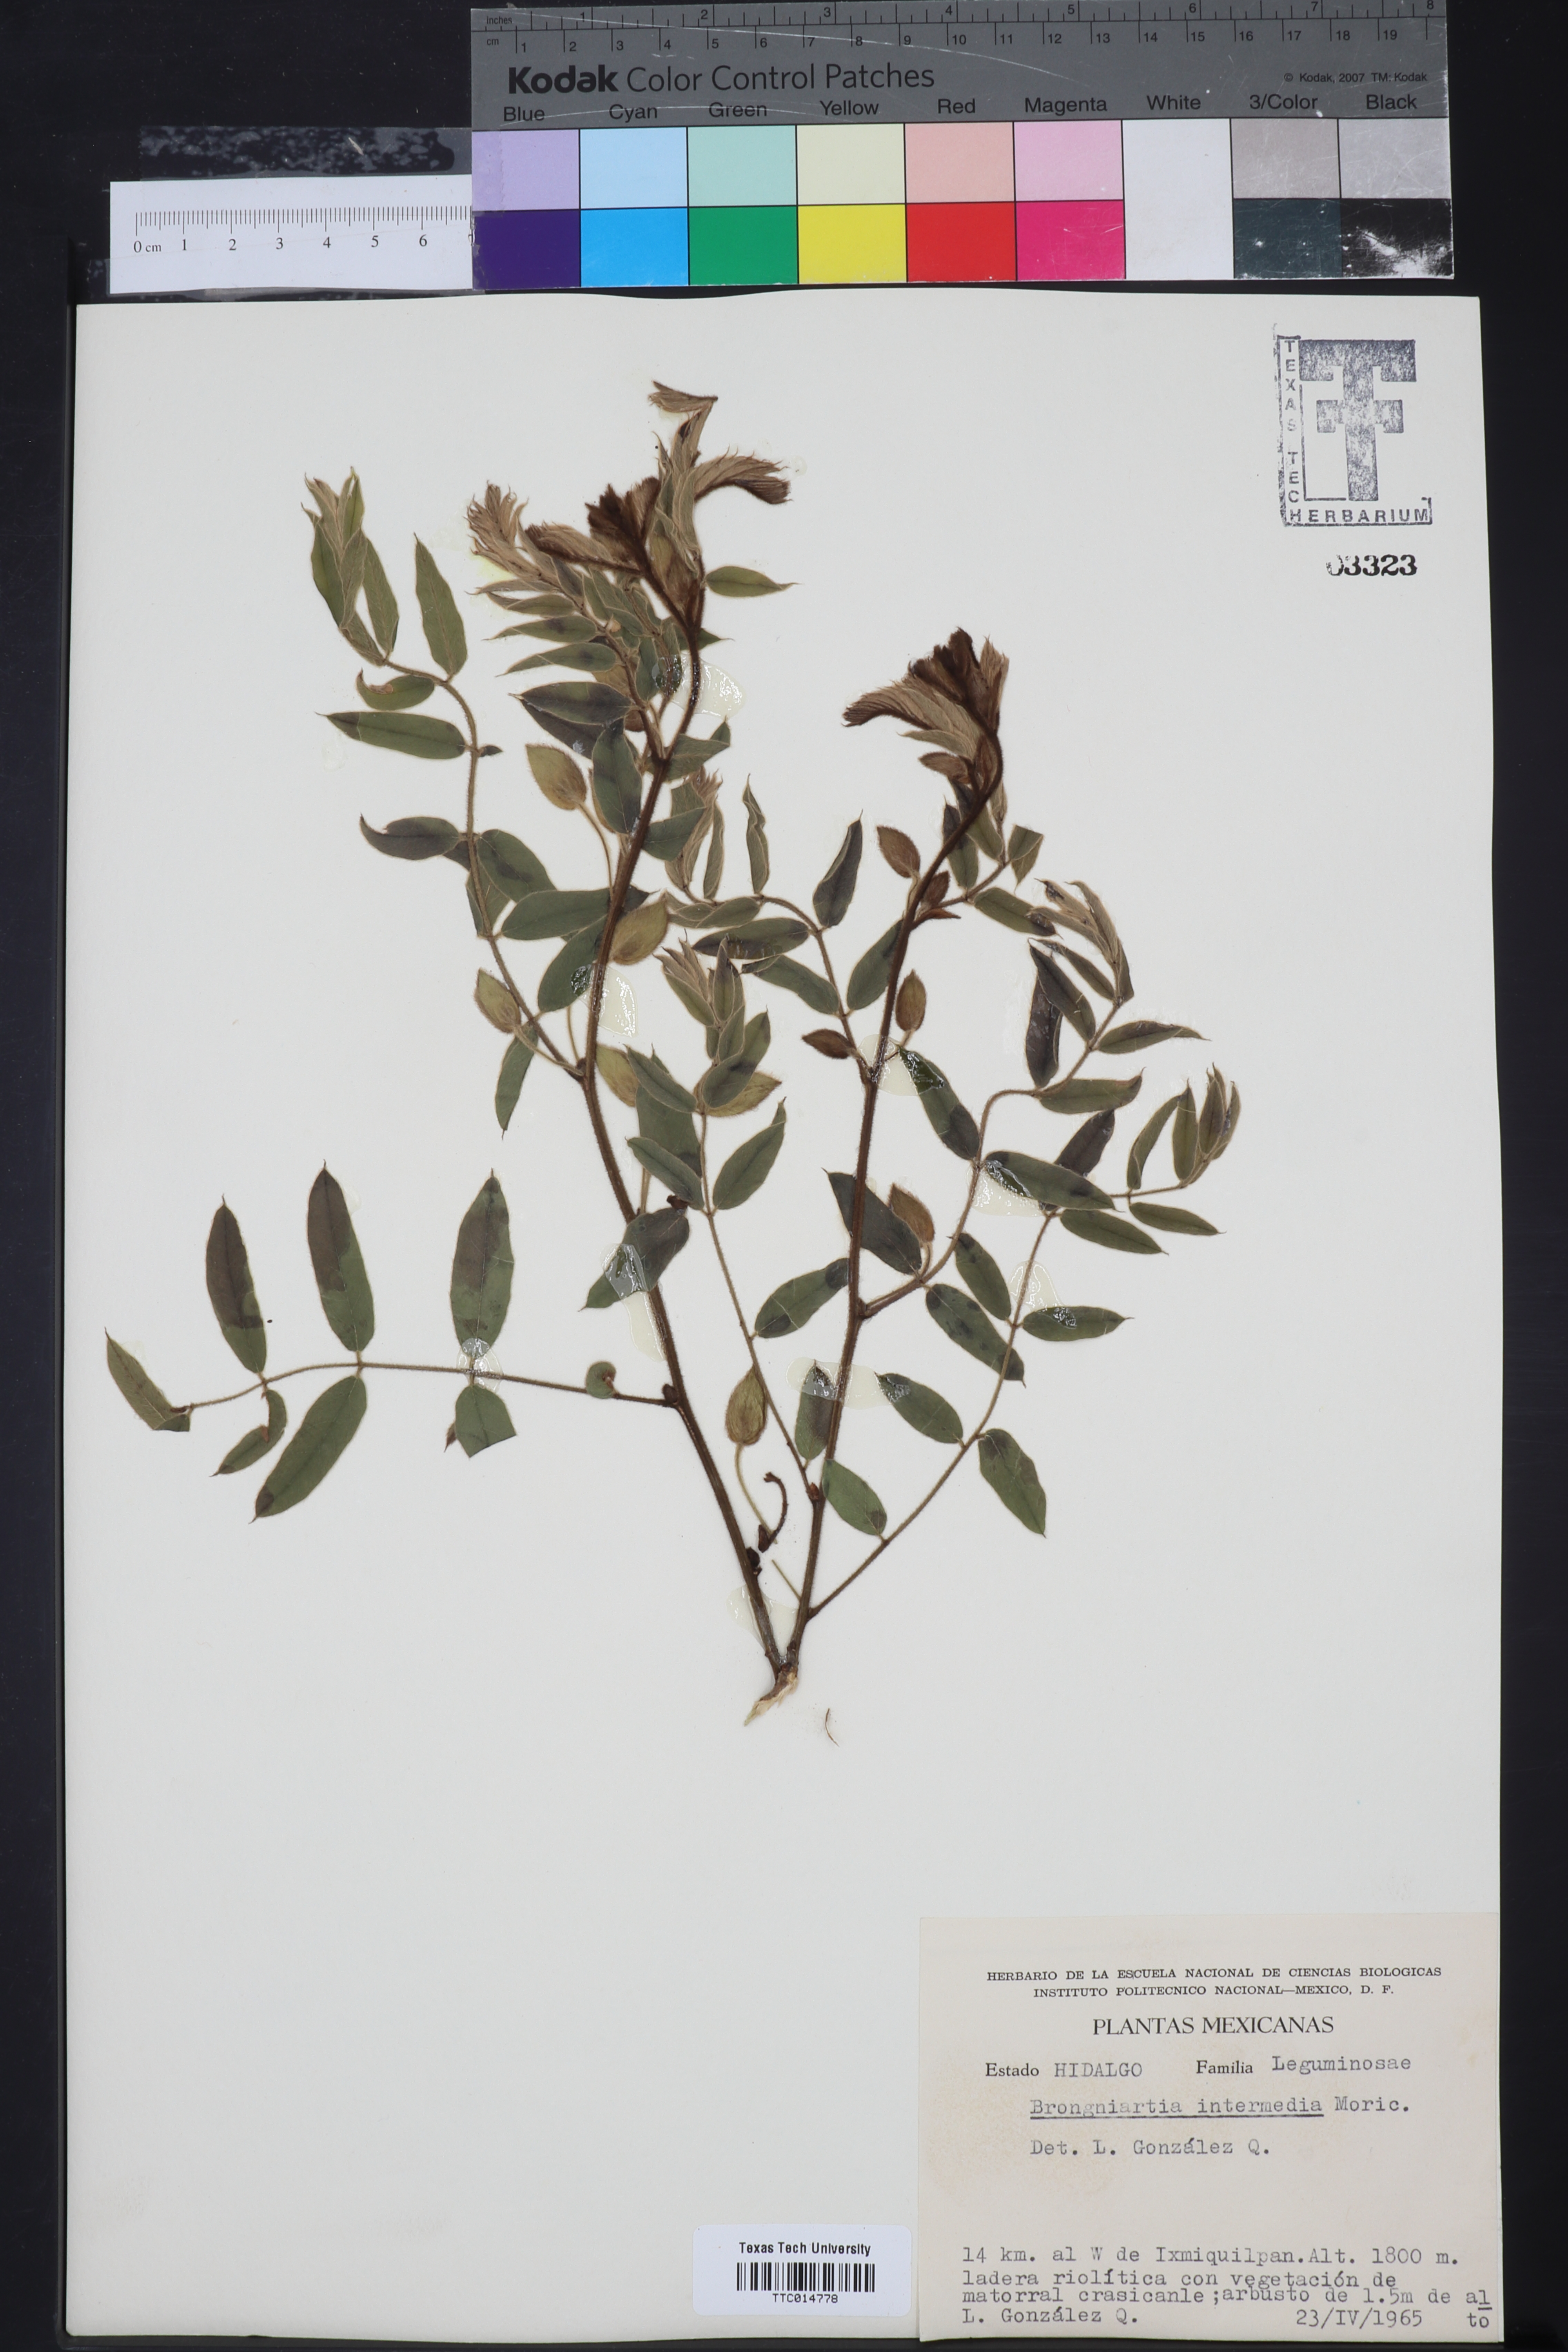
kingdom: Plantae
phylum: Tracheophyta
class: Magnoliopsida
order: Fabales
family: Fabaceae
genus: Brongniartia
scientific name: Brongniartia intermedia
